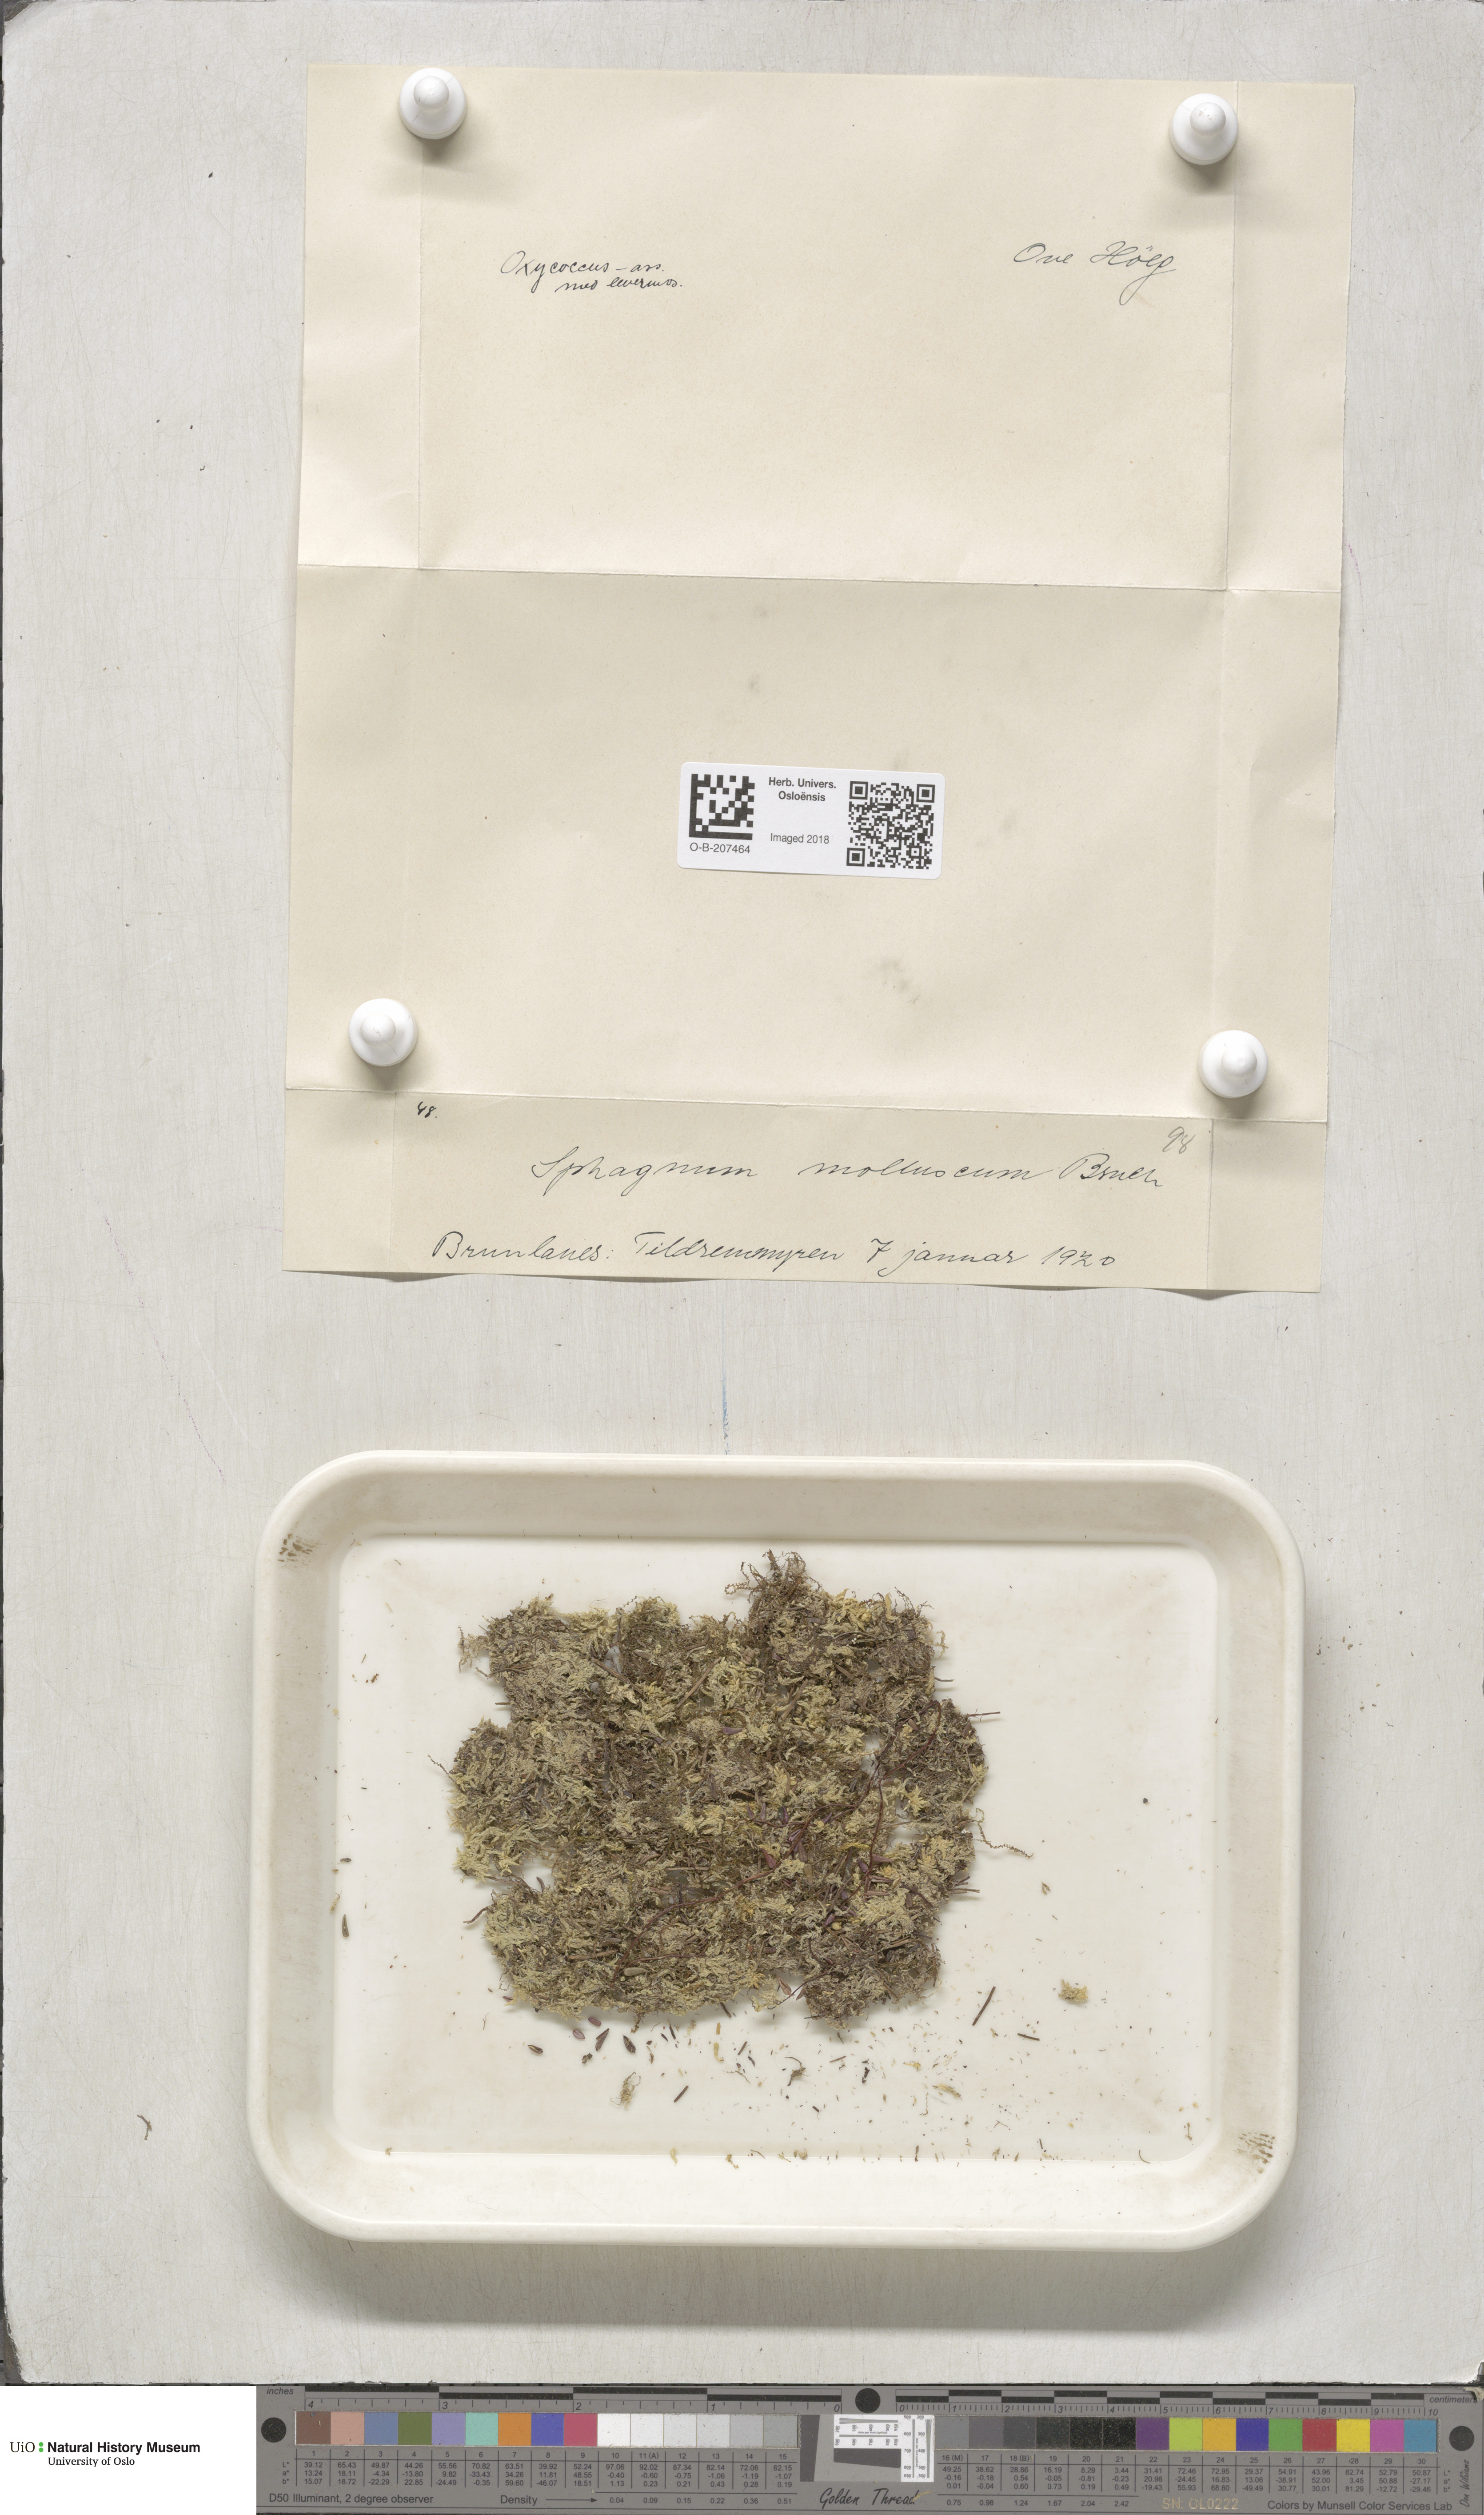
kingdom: Plantae
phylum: Bryophyta
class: Sphagnopsida
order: Sphagnales
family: Sphagnaceae
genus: Sphagnum
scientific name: Sphagnum tenellum
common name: Soft bog-moss
